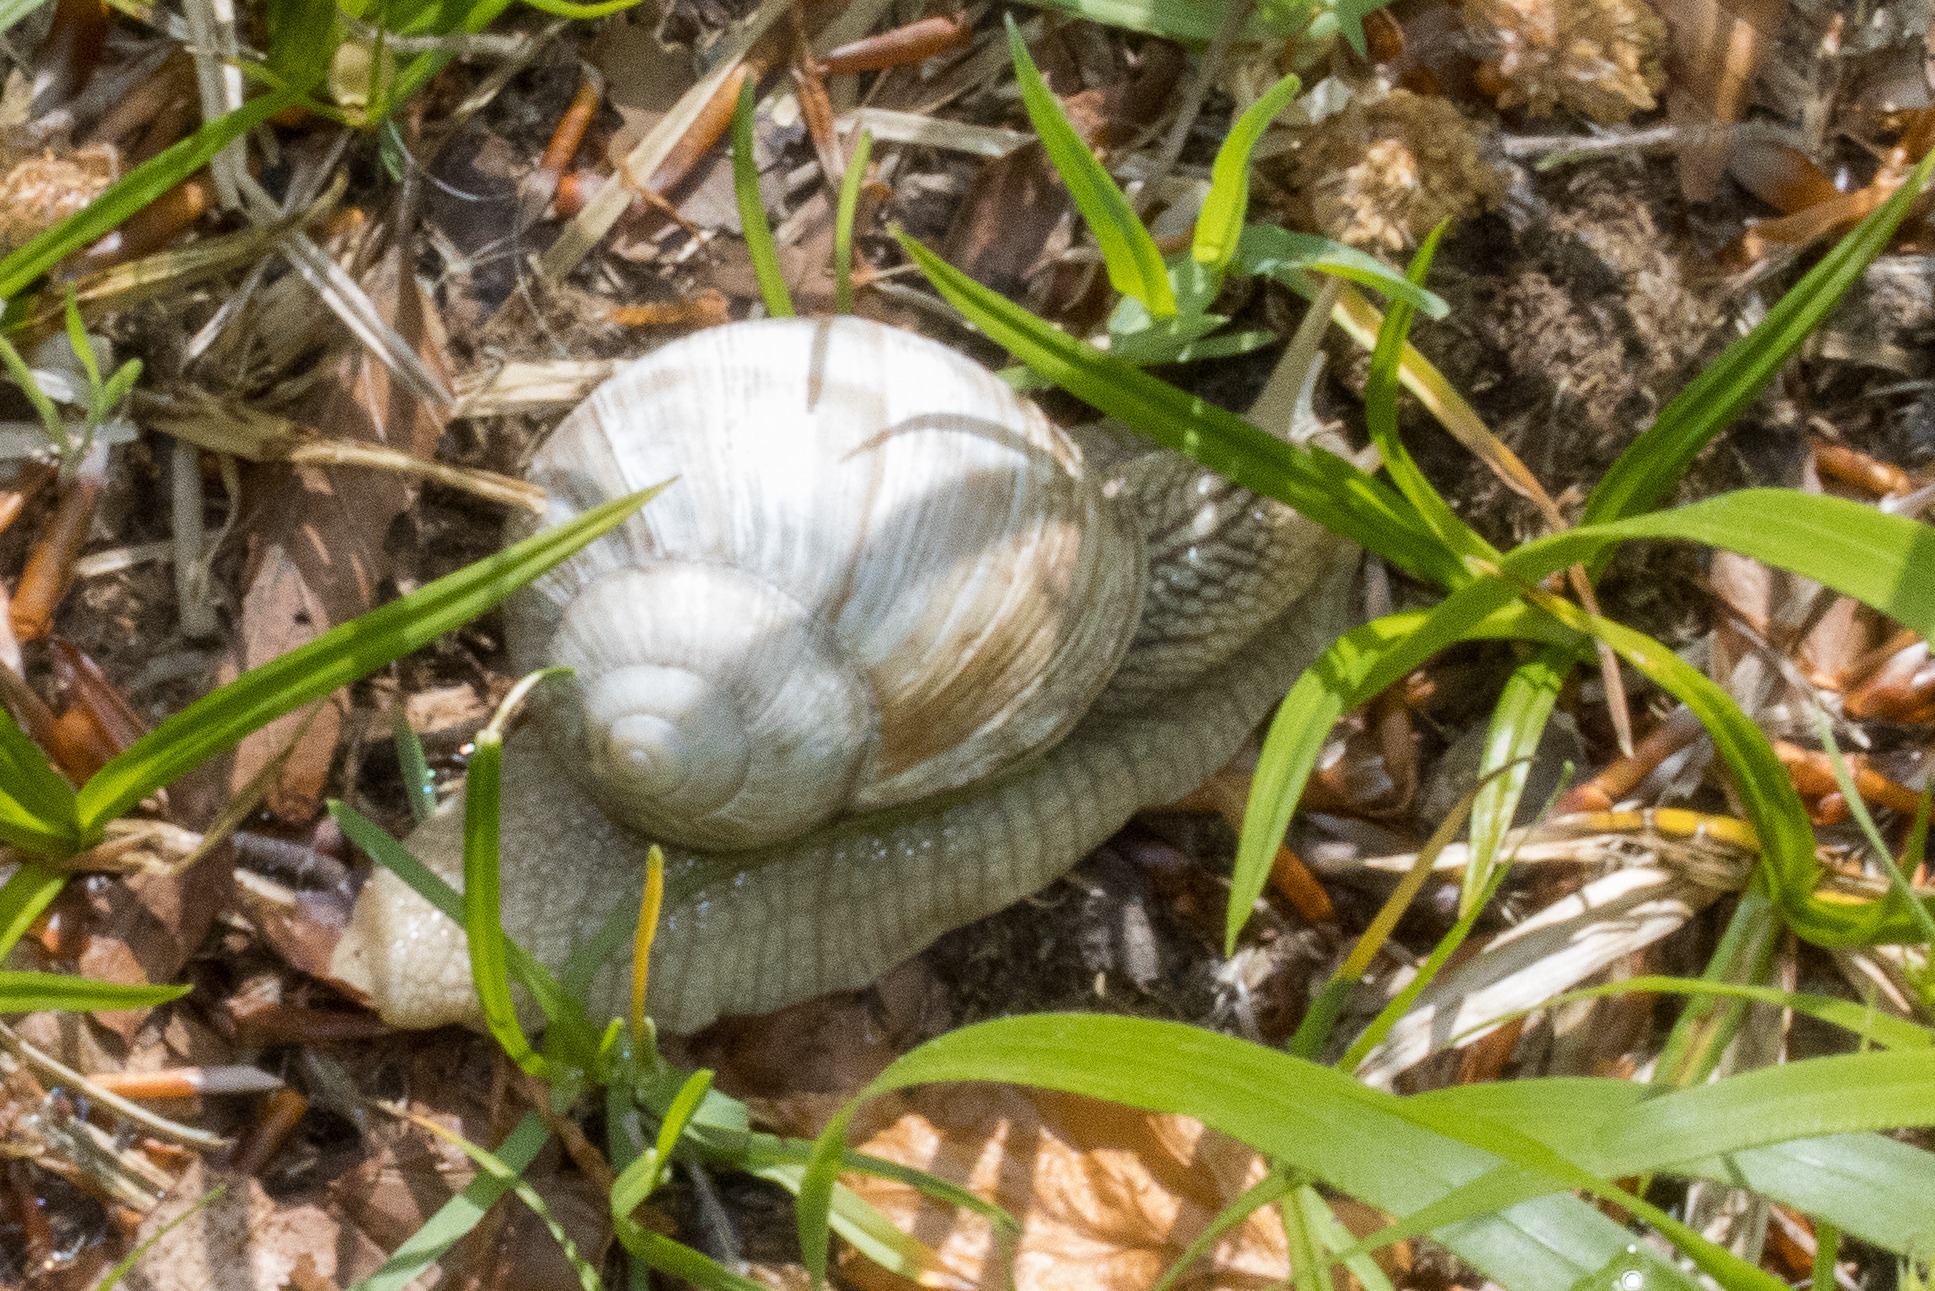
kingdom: Animalia
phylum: Mollusca
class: Gastropoda
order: Stylommatophora
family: Helicidae
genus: Helix
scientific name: Helix pomatia
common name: Vinbjergsnegl
